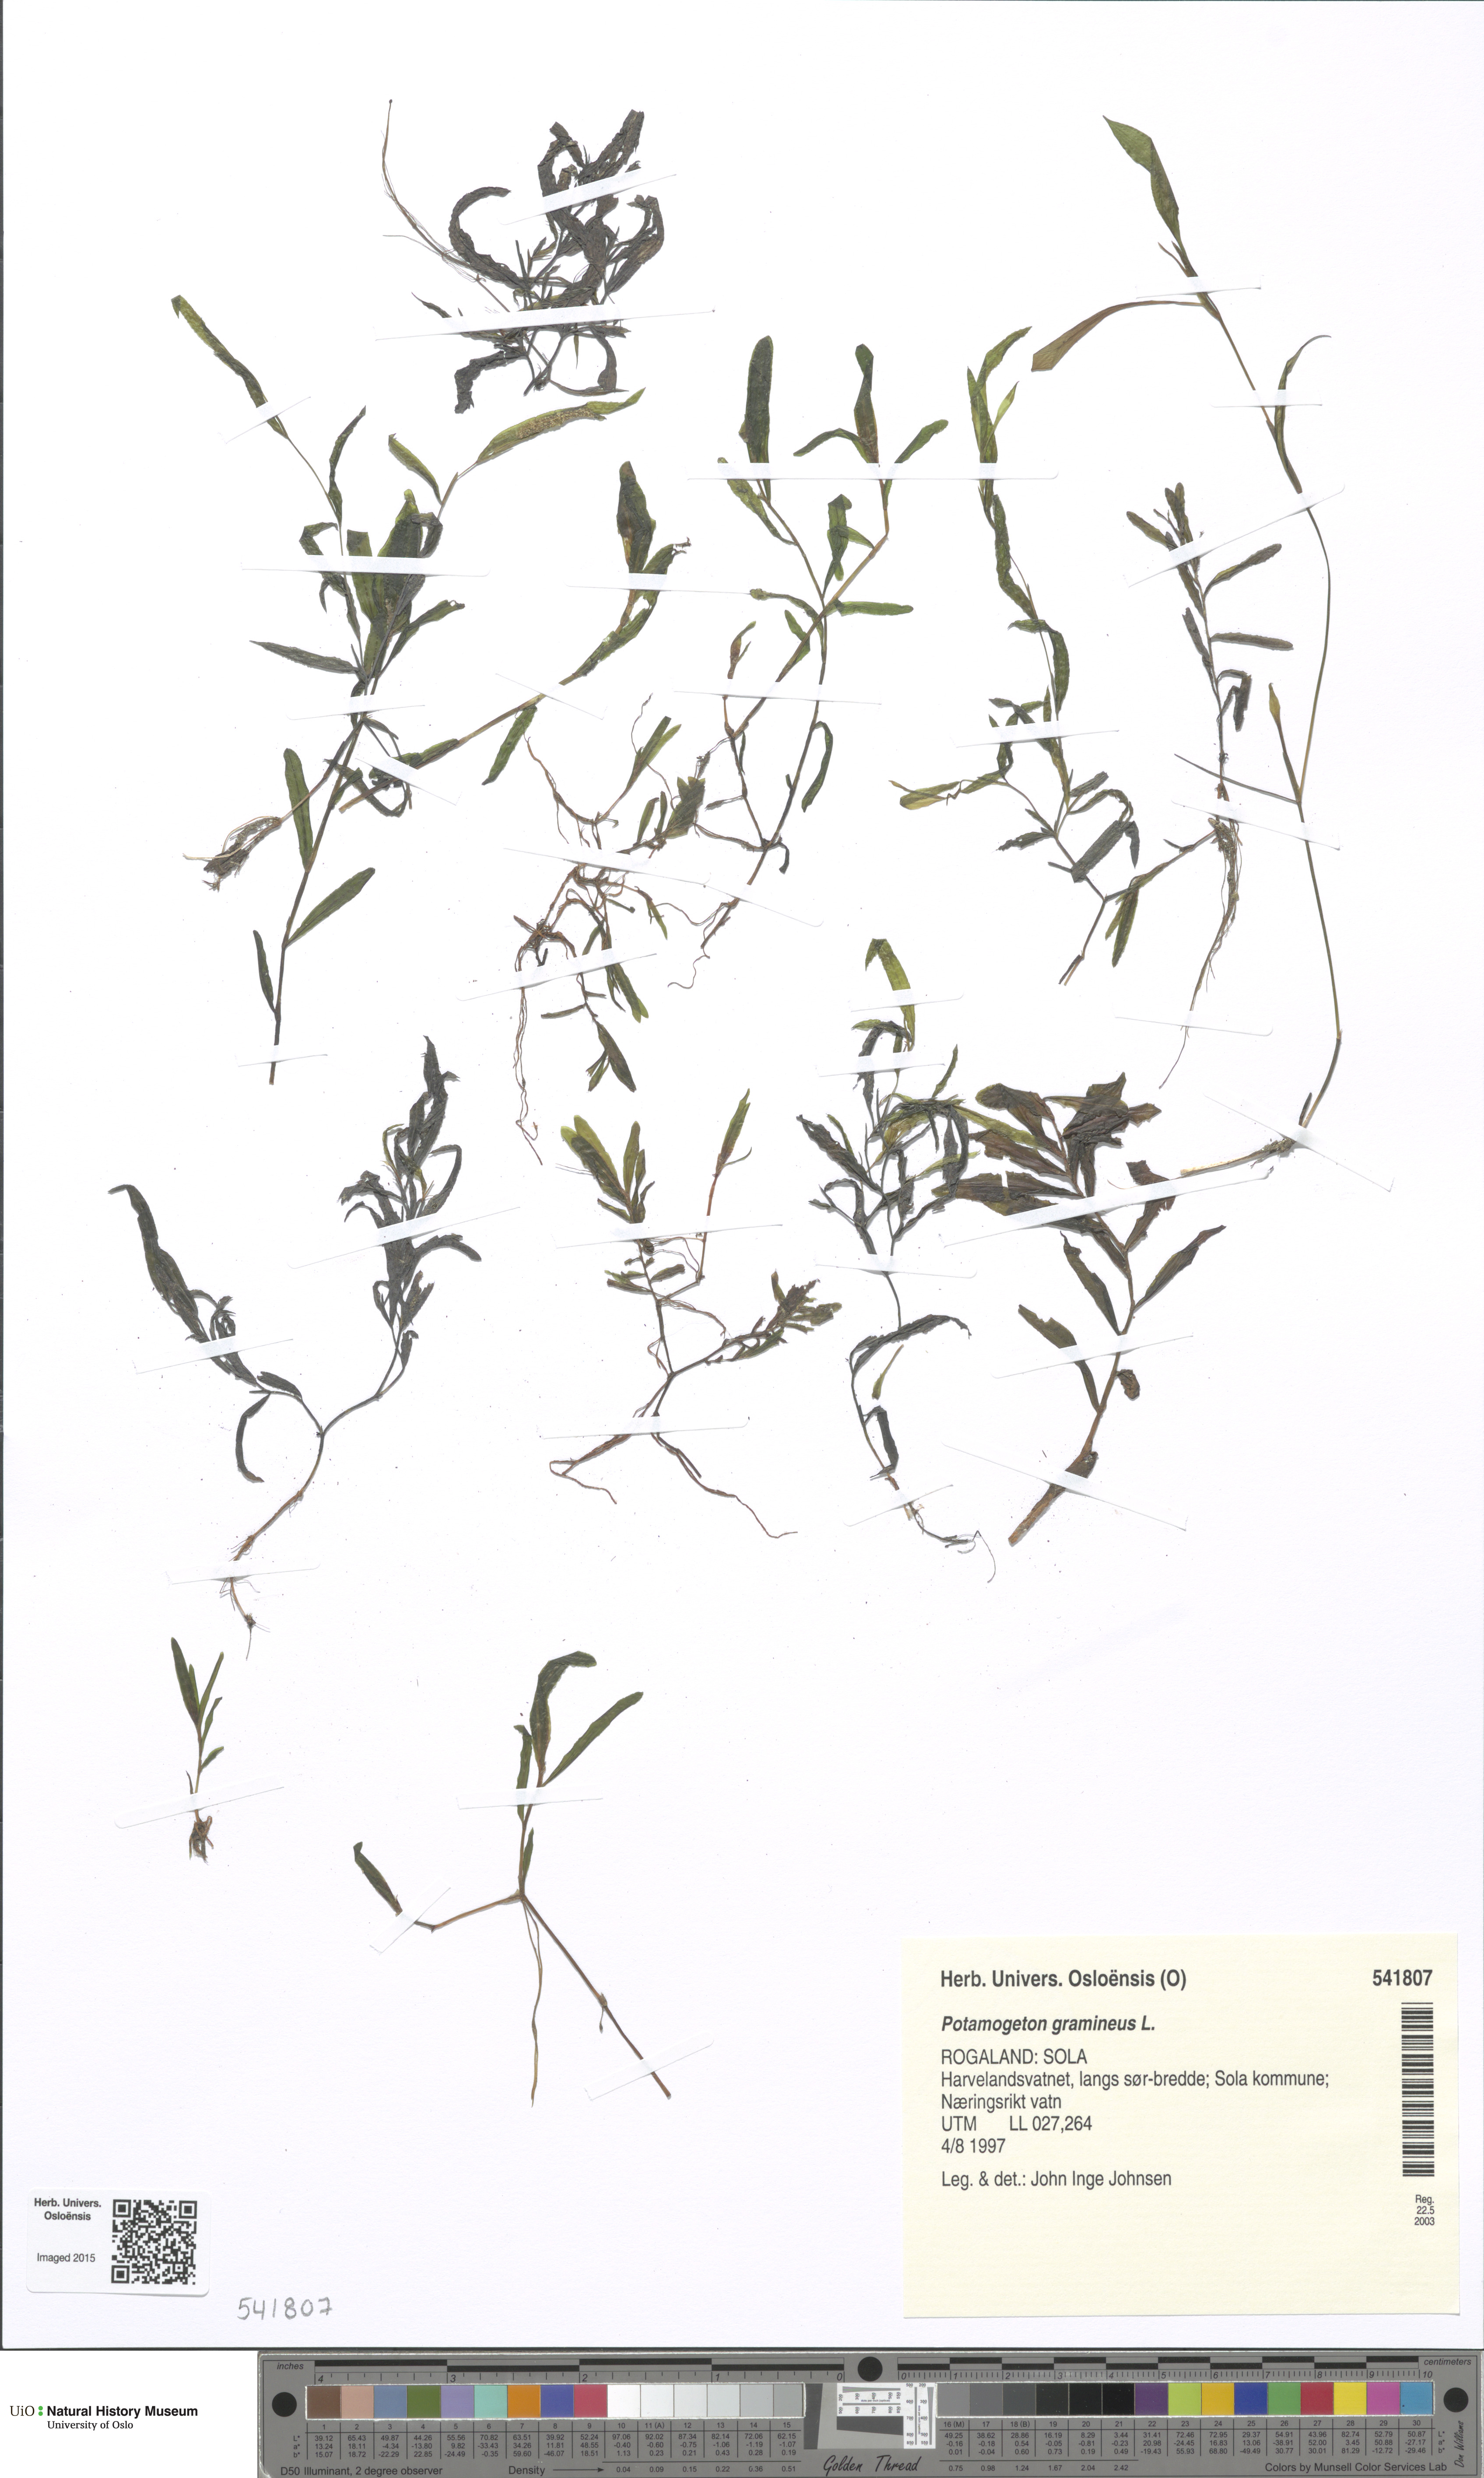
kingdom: Plantae
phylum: Tracheophyta
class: Liliopsida
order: Alismatales
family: Potamogetonaceae
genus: Potamogeton
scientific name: Potamogeton gramineus
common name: Various-leaved pondweed
